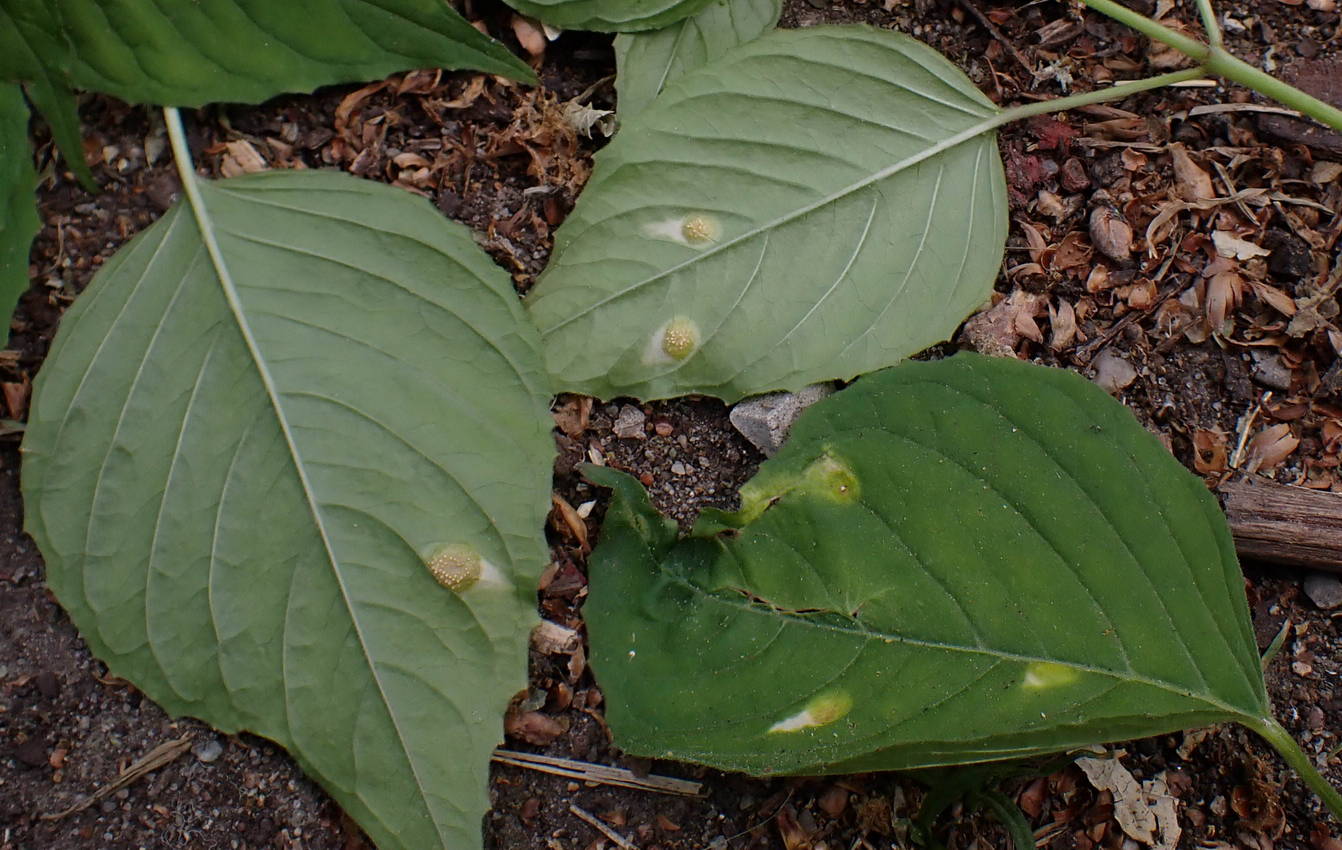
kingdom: Fungi
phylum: Basidiomycota
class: Pucciniomycetes
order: Pucciniales
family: Pucciniaceae
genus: Puccinia
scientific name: Puccinia circaeae-caricis
